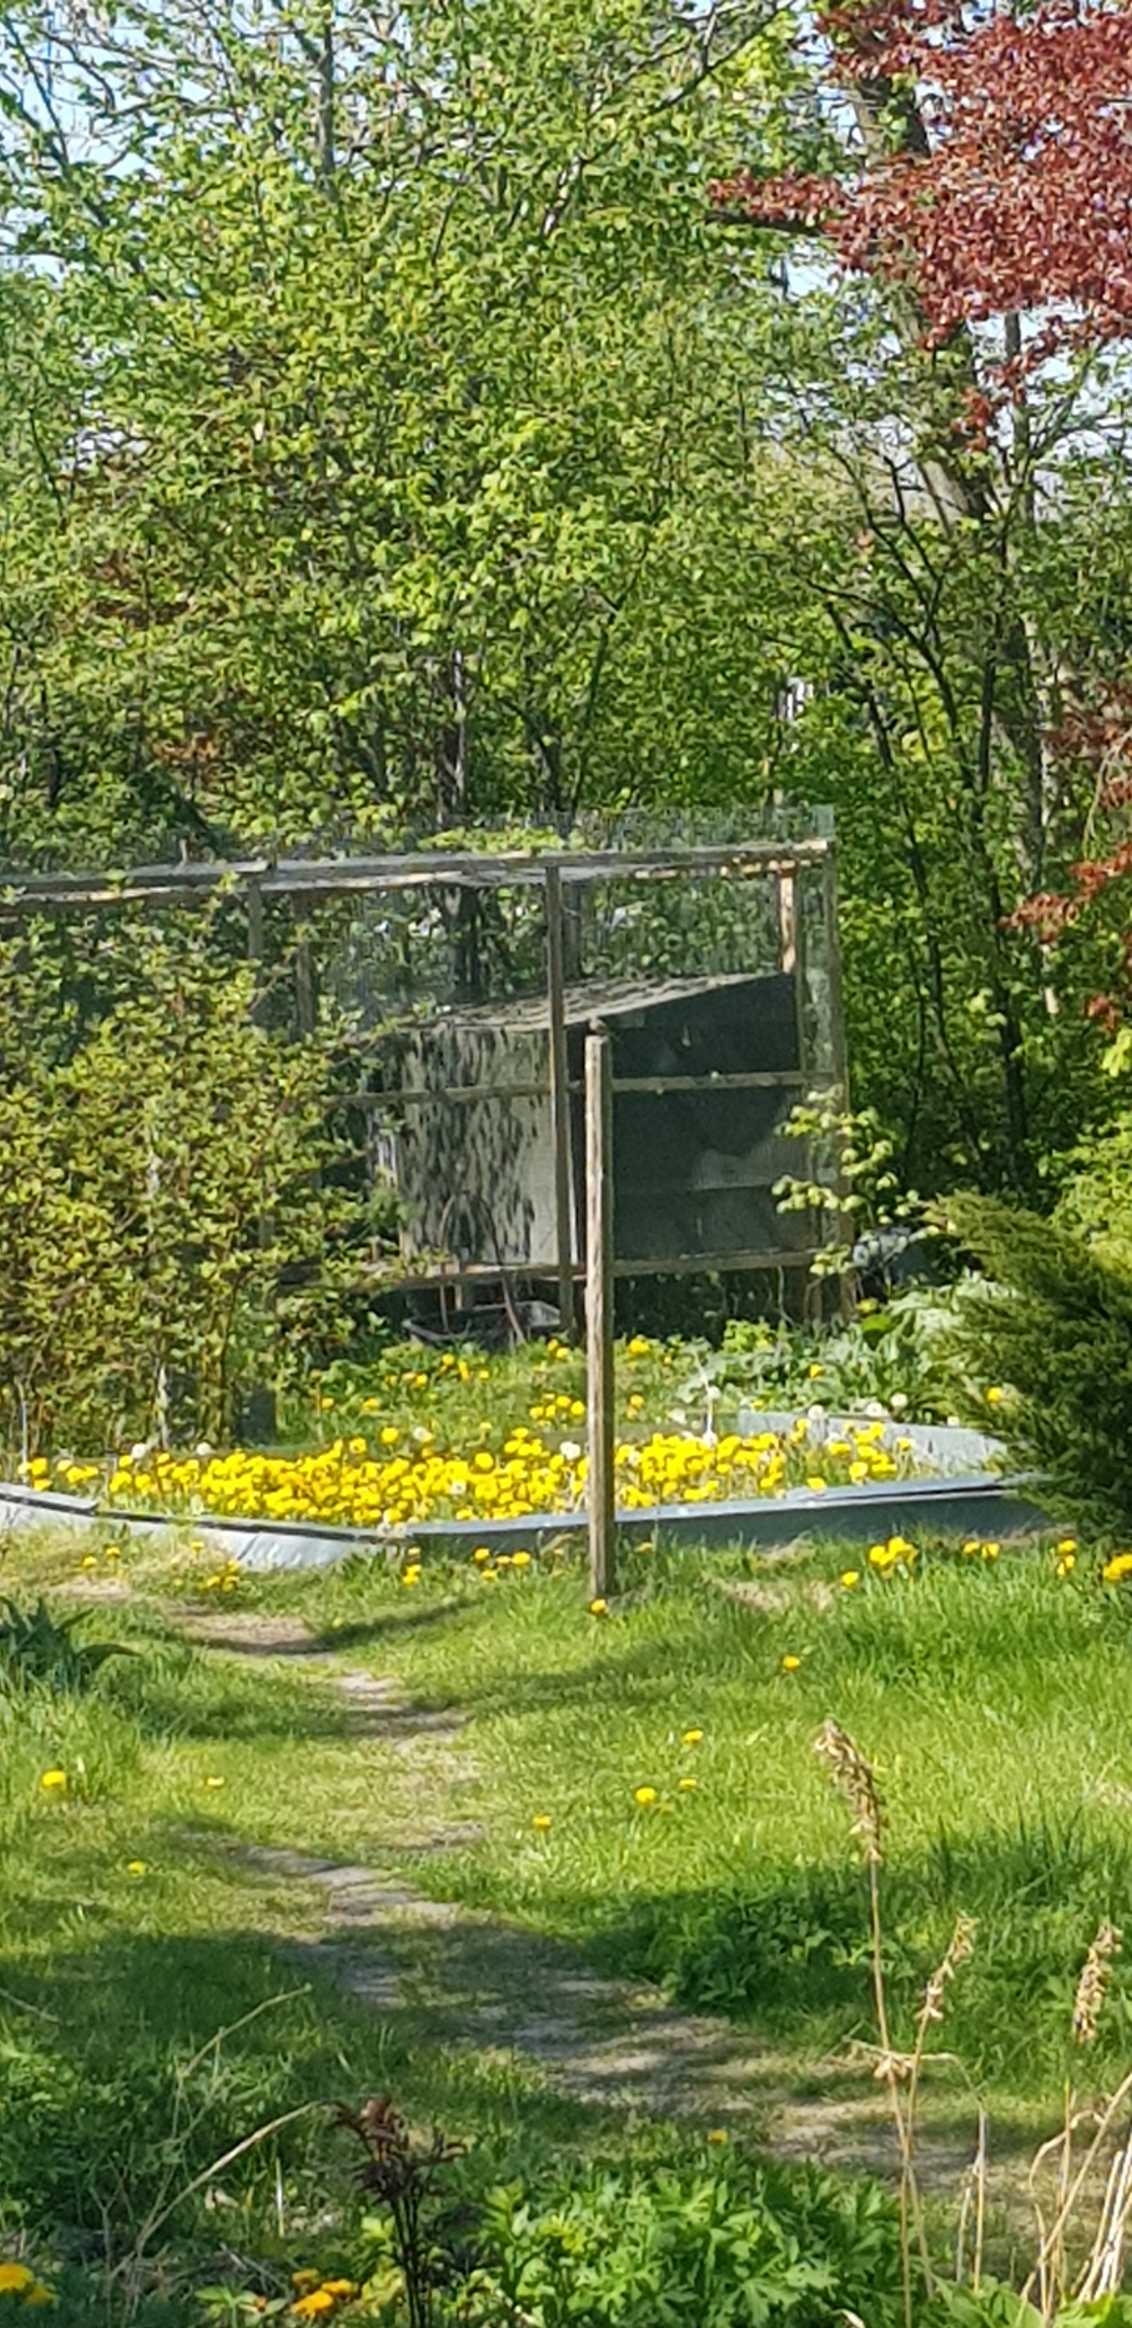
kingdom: Animalia
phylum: Chordata
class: Aves
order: Passeriformes
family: Muscicapidae
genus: Phoenicurus
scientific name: Phoenicurus phoenicurus
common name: Rødstjert
